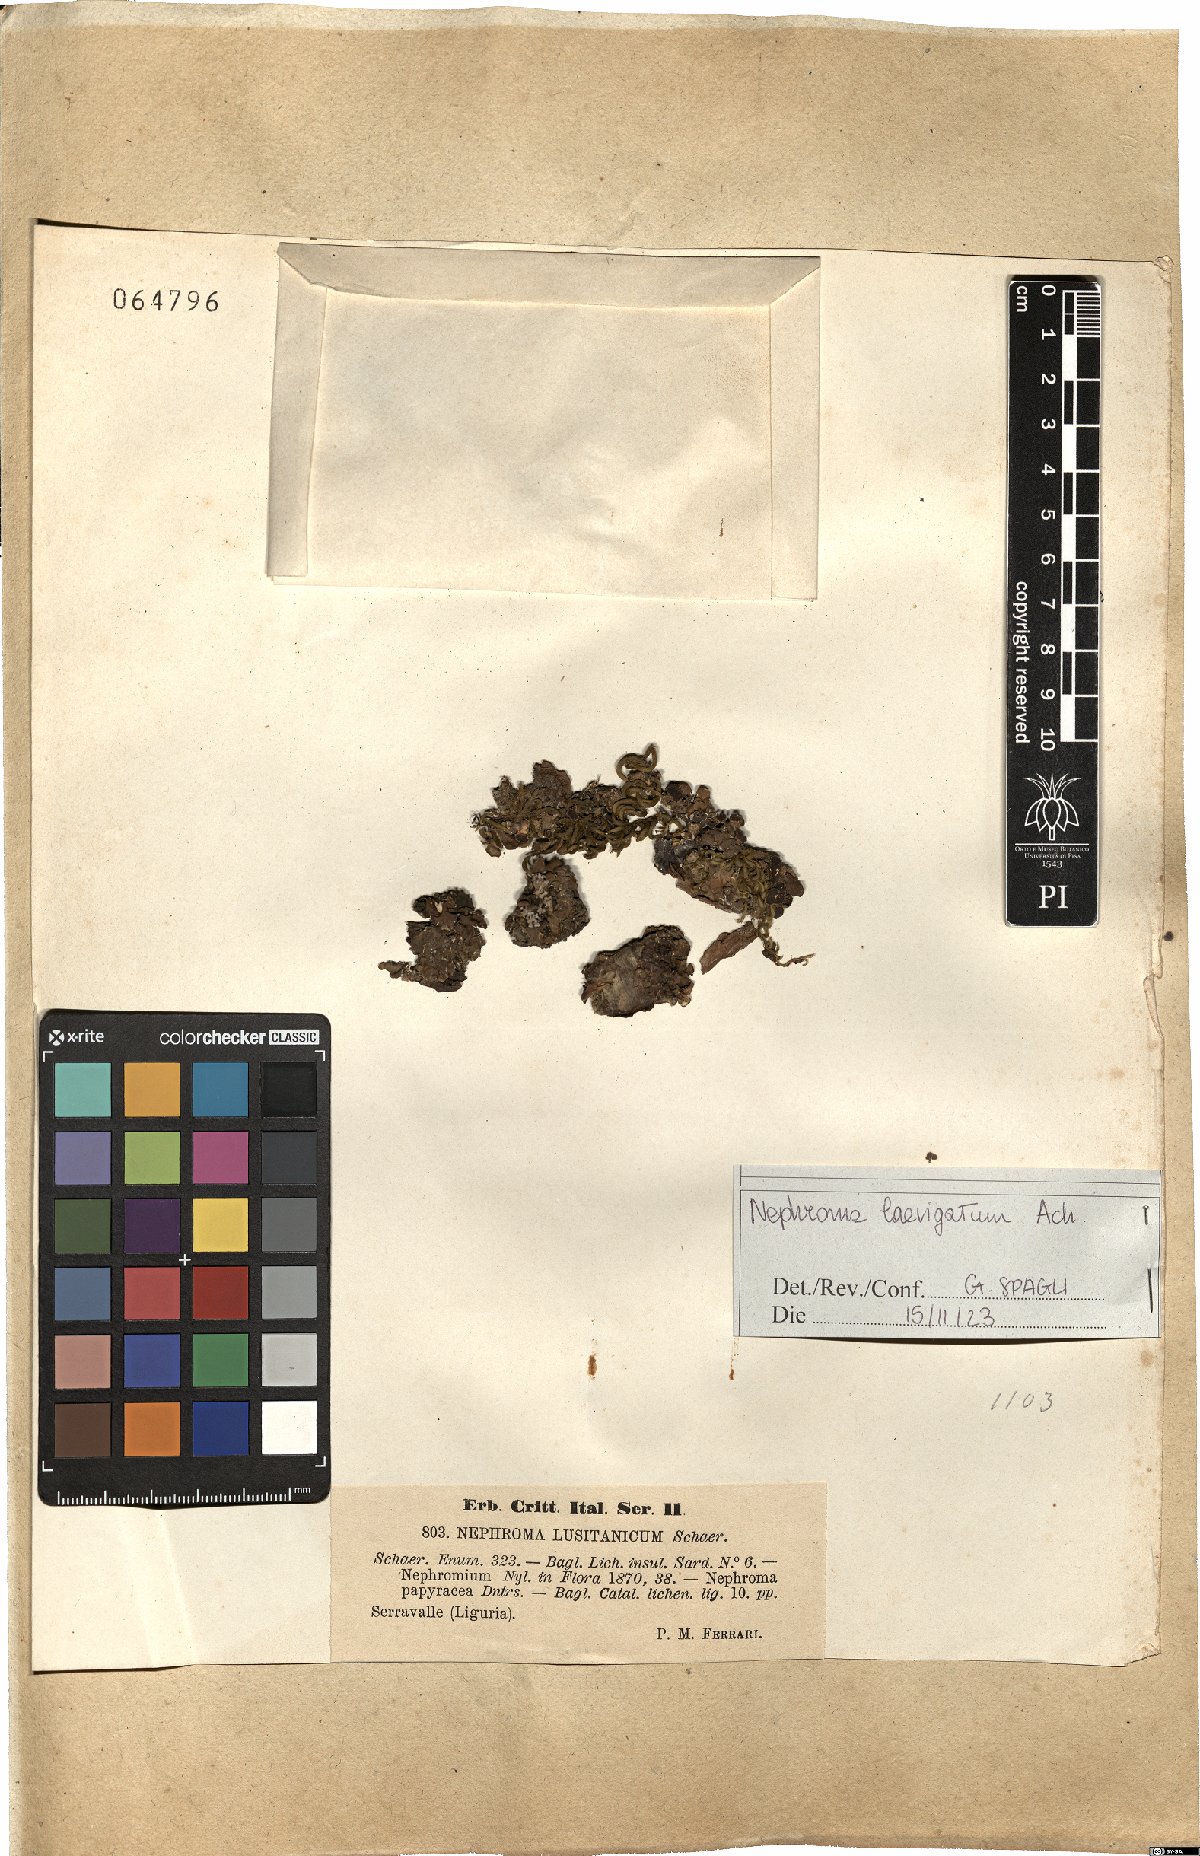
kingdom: Fungi
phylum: Ascomycota
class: Lecanoromycetes
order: Peltigerales
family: Nephromataceae
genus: Nephroma
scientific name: Nephroma laevigatum
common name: Mustard kidney lichen
